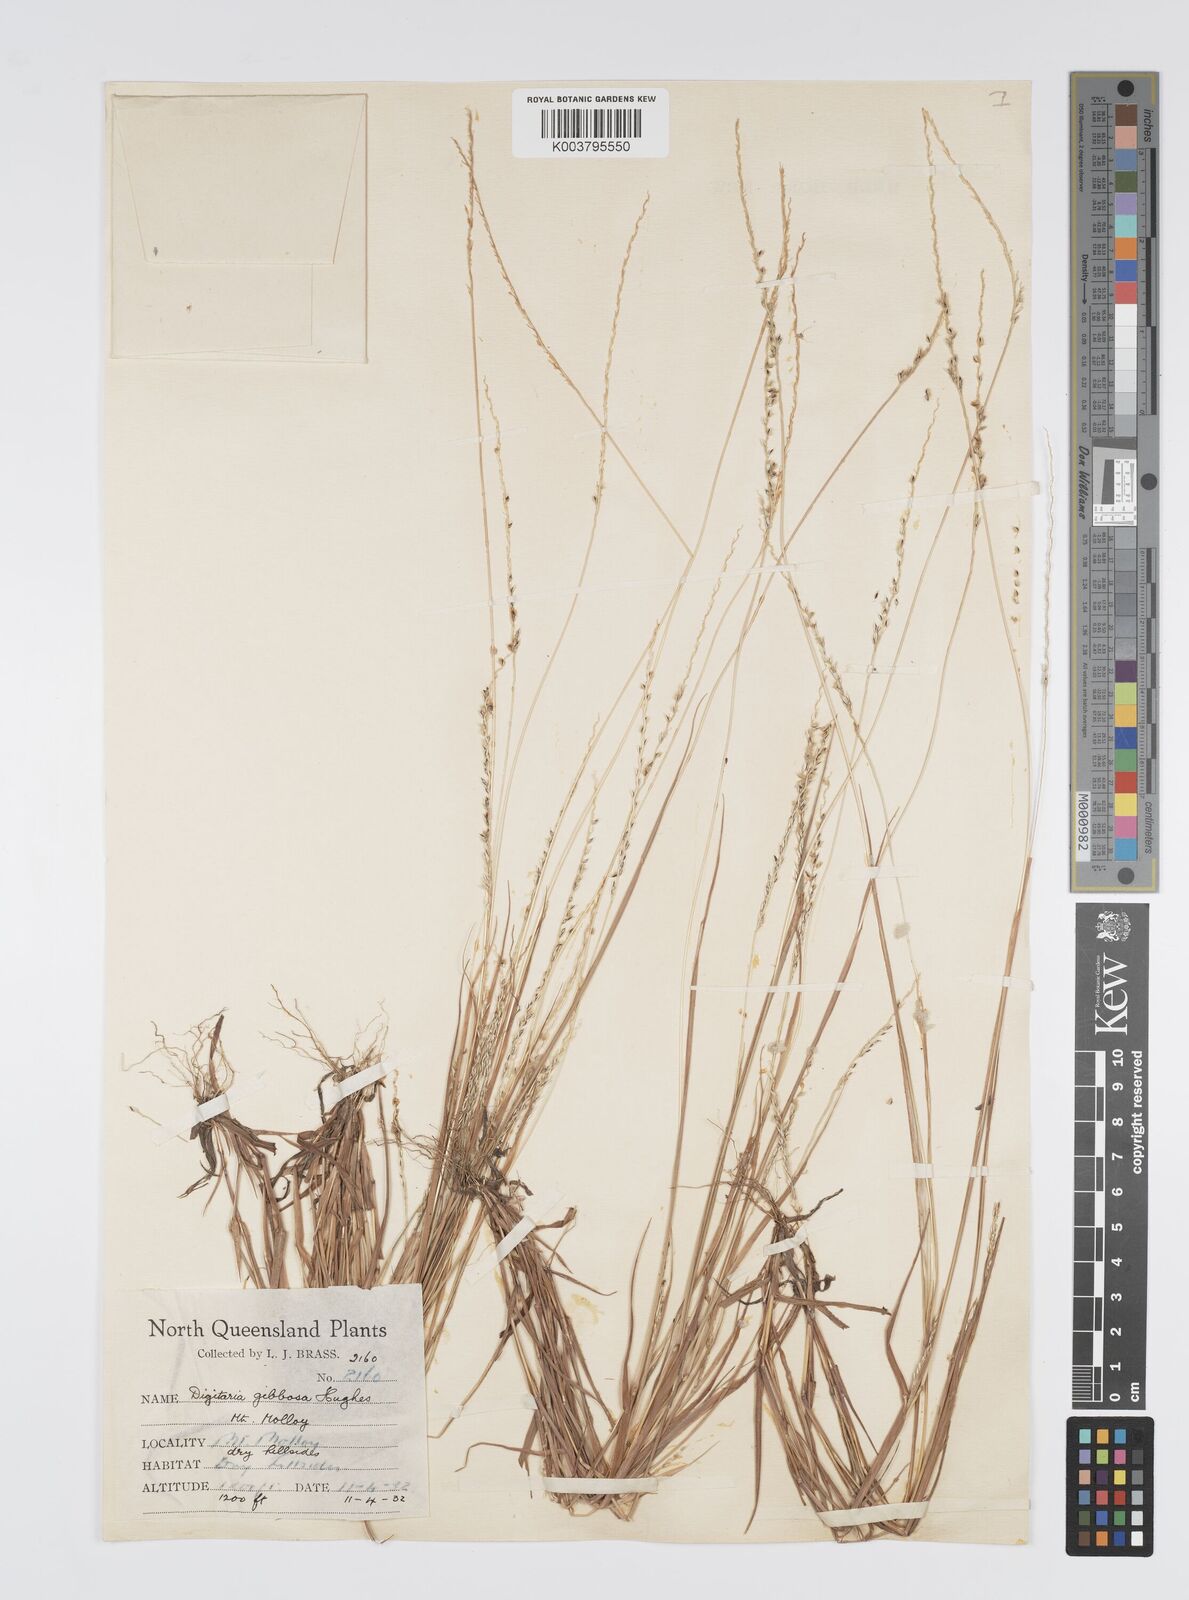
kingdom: Plantae
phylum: Tracheophyta
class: Liliopsida
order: Poales
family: Poaceae
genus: Digitaria
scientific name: Digitaria gibbosa
